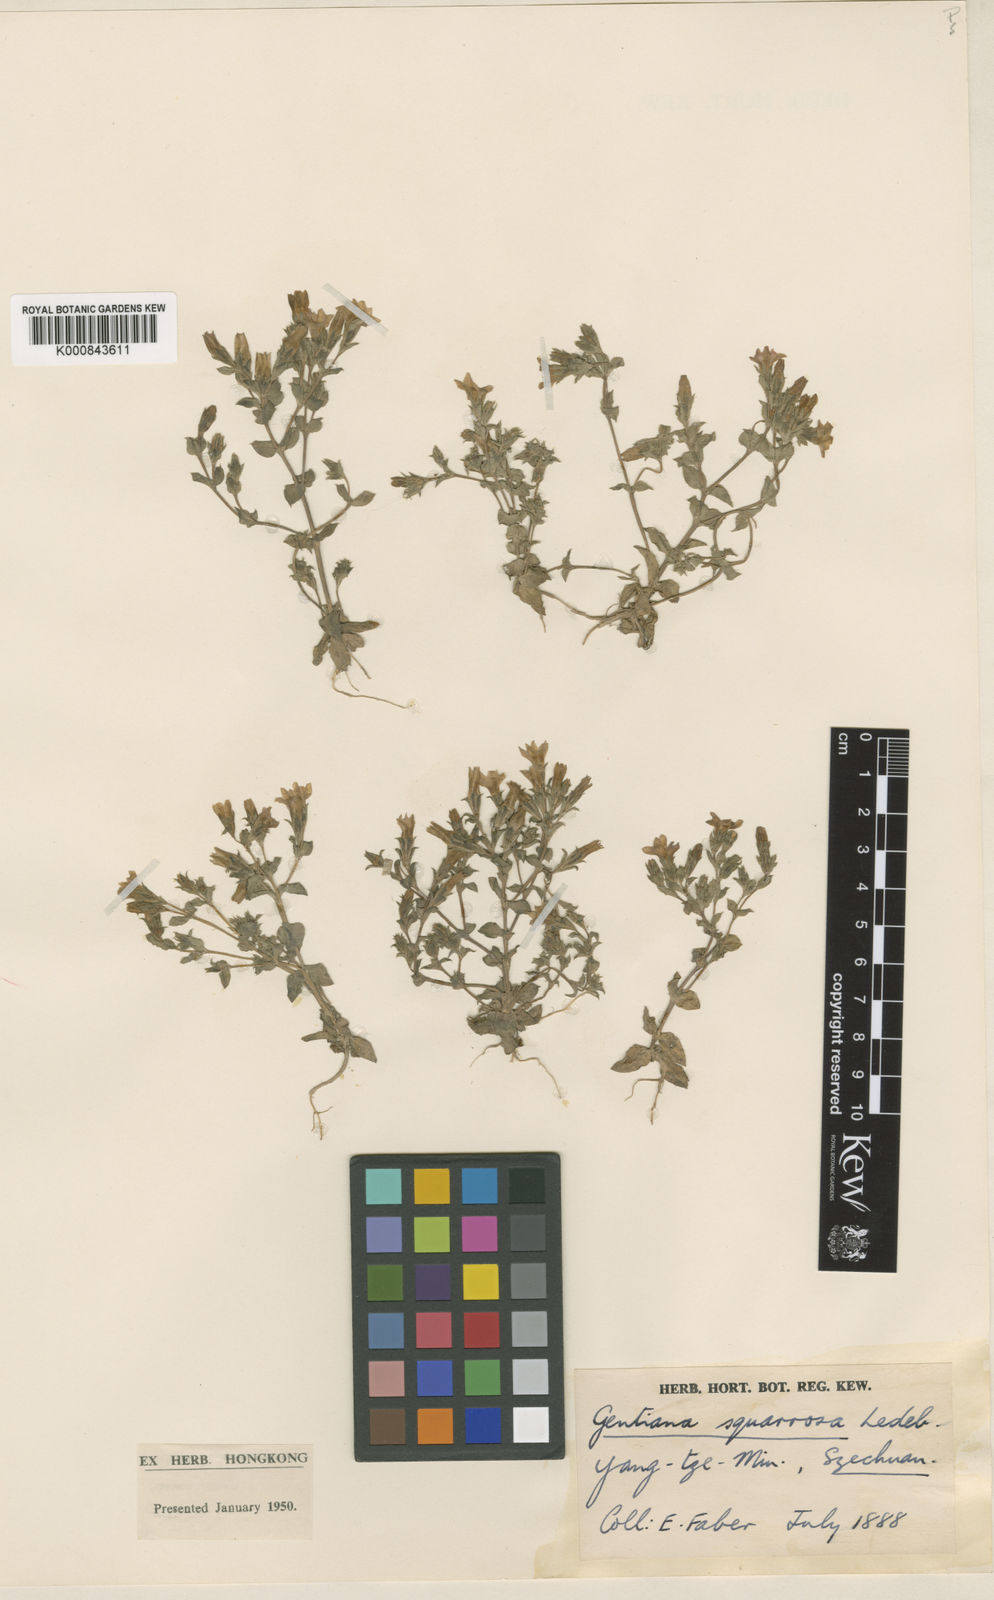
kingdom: Plantae
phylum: Tracheophyta
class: Magnoliopsida
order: Gentianales
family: Gentianaceae
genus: Gentiana
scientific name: Gentiana yokusai
